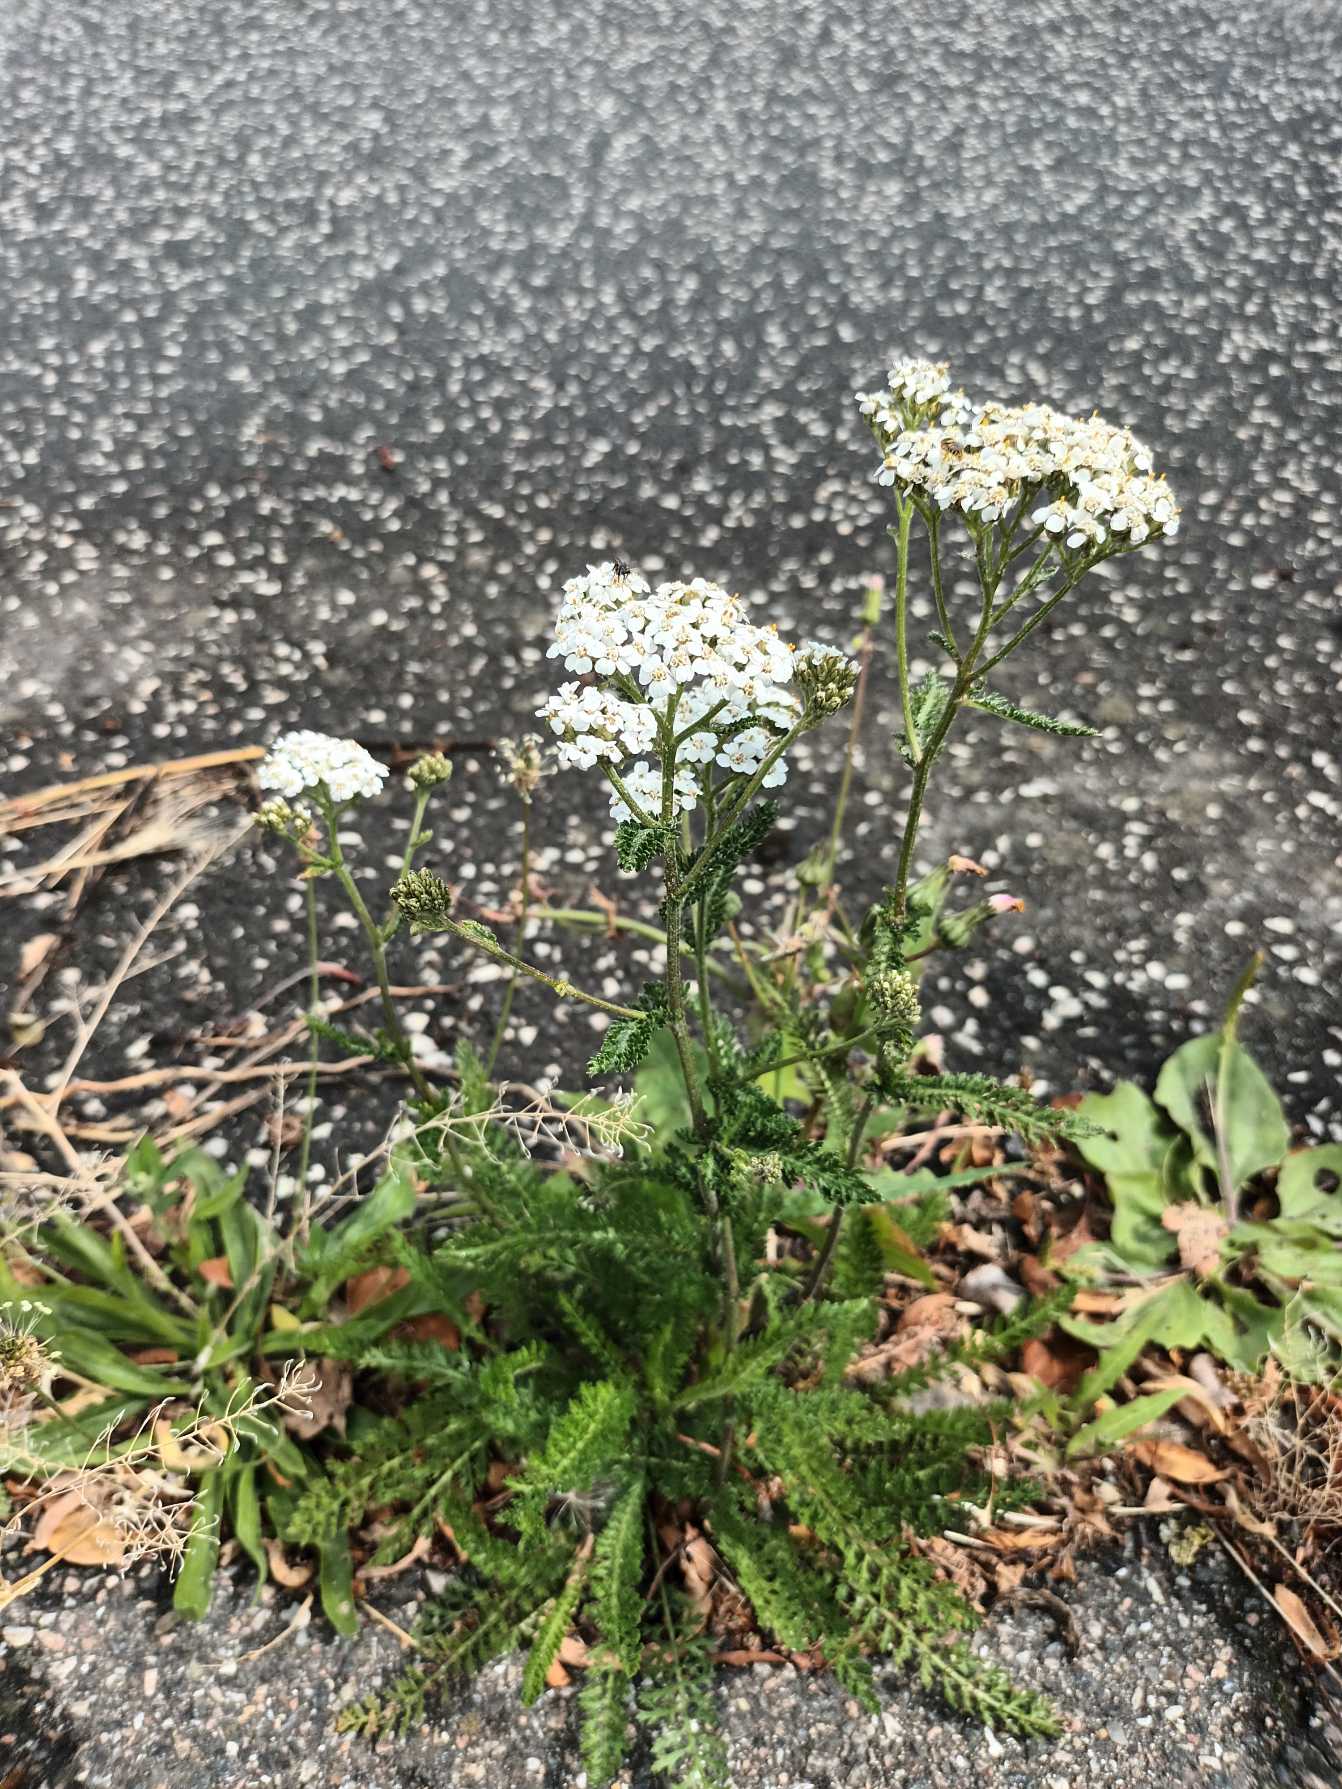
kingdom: Plantae
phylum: Tracheophyta
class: Magnoliopsida
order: Asterales
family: Asteraceae
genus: Achillea
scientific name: Achillea millefolium
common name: Almindelig røllike
